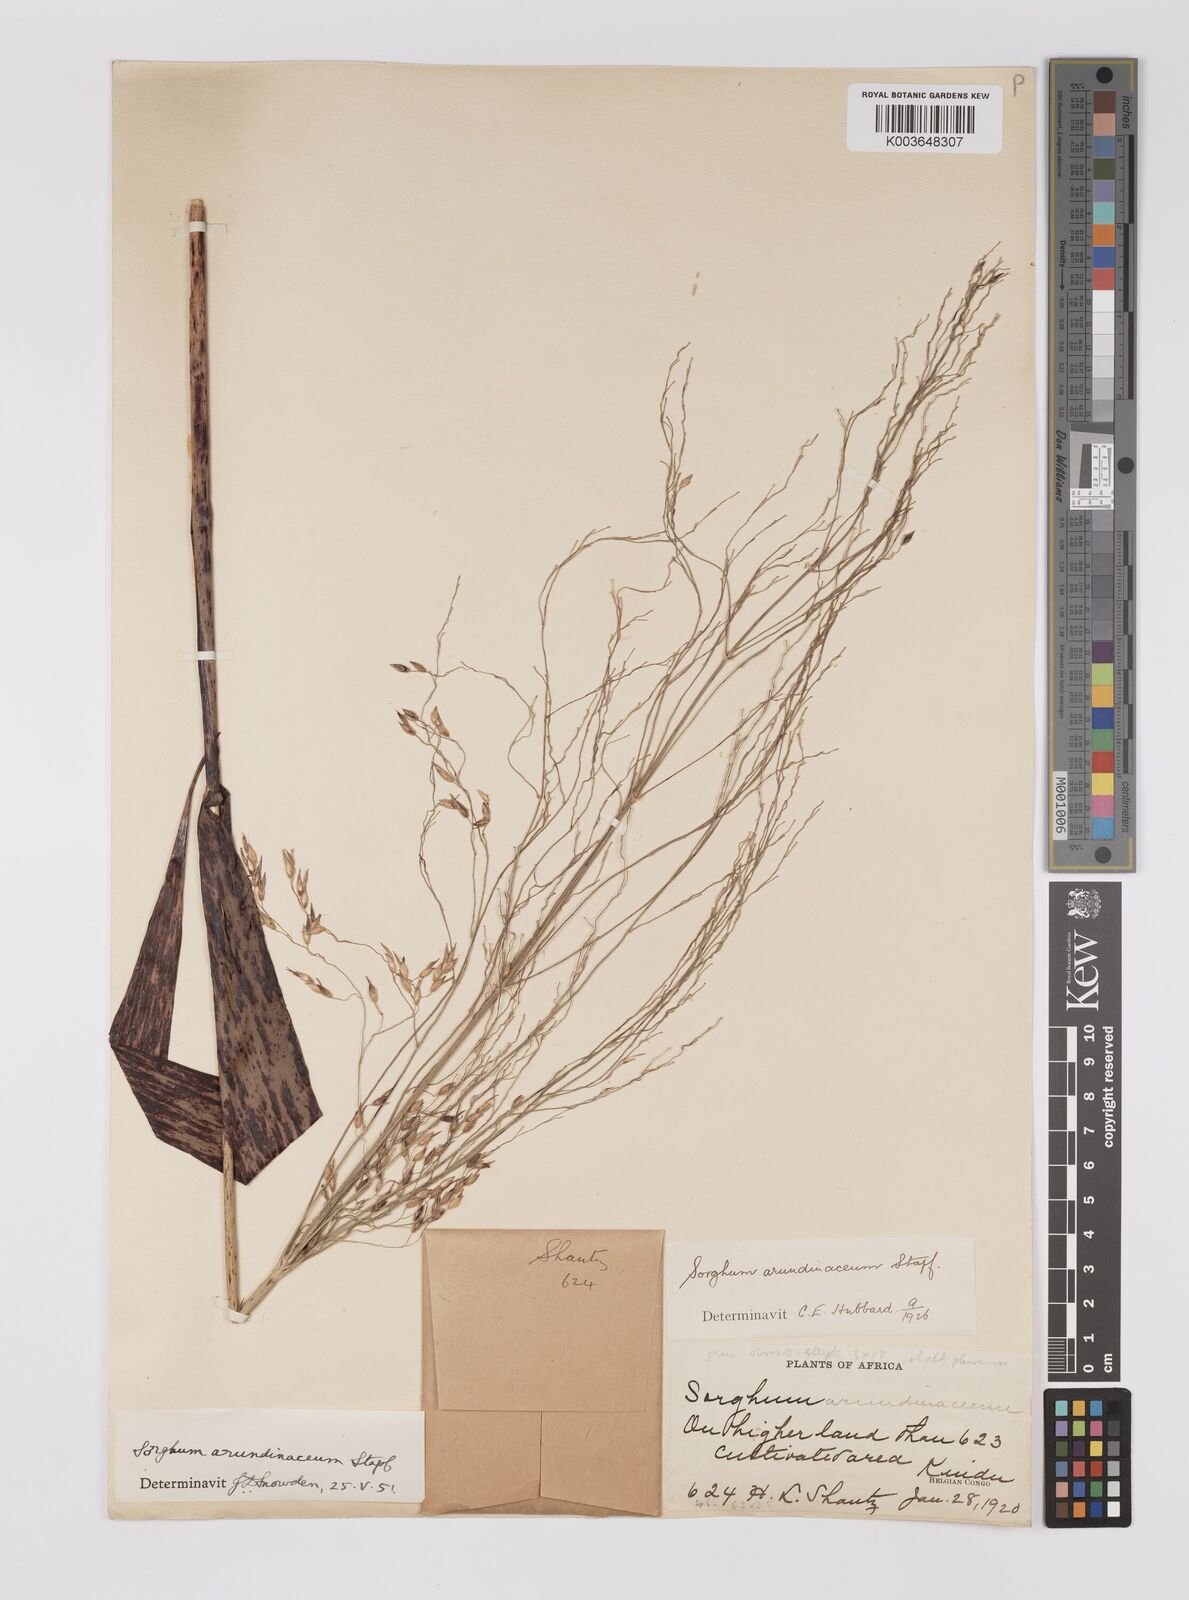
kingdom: Plantae
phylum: Tracheophyta
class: Liliopsida
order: Poales
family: Poaceae
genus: Sorghum
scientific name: Sorghum arundinaceum
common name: Sorghum
